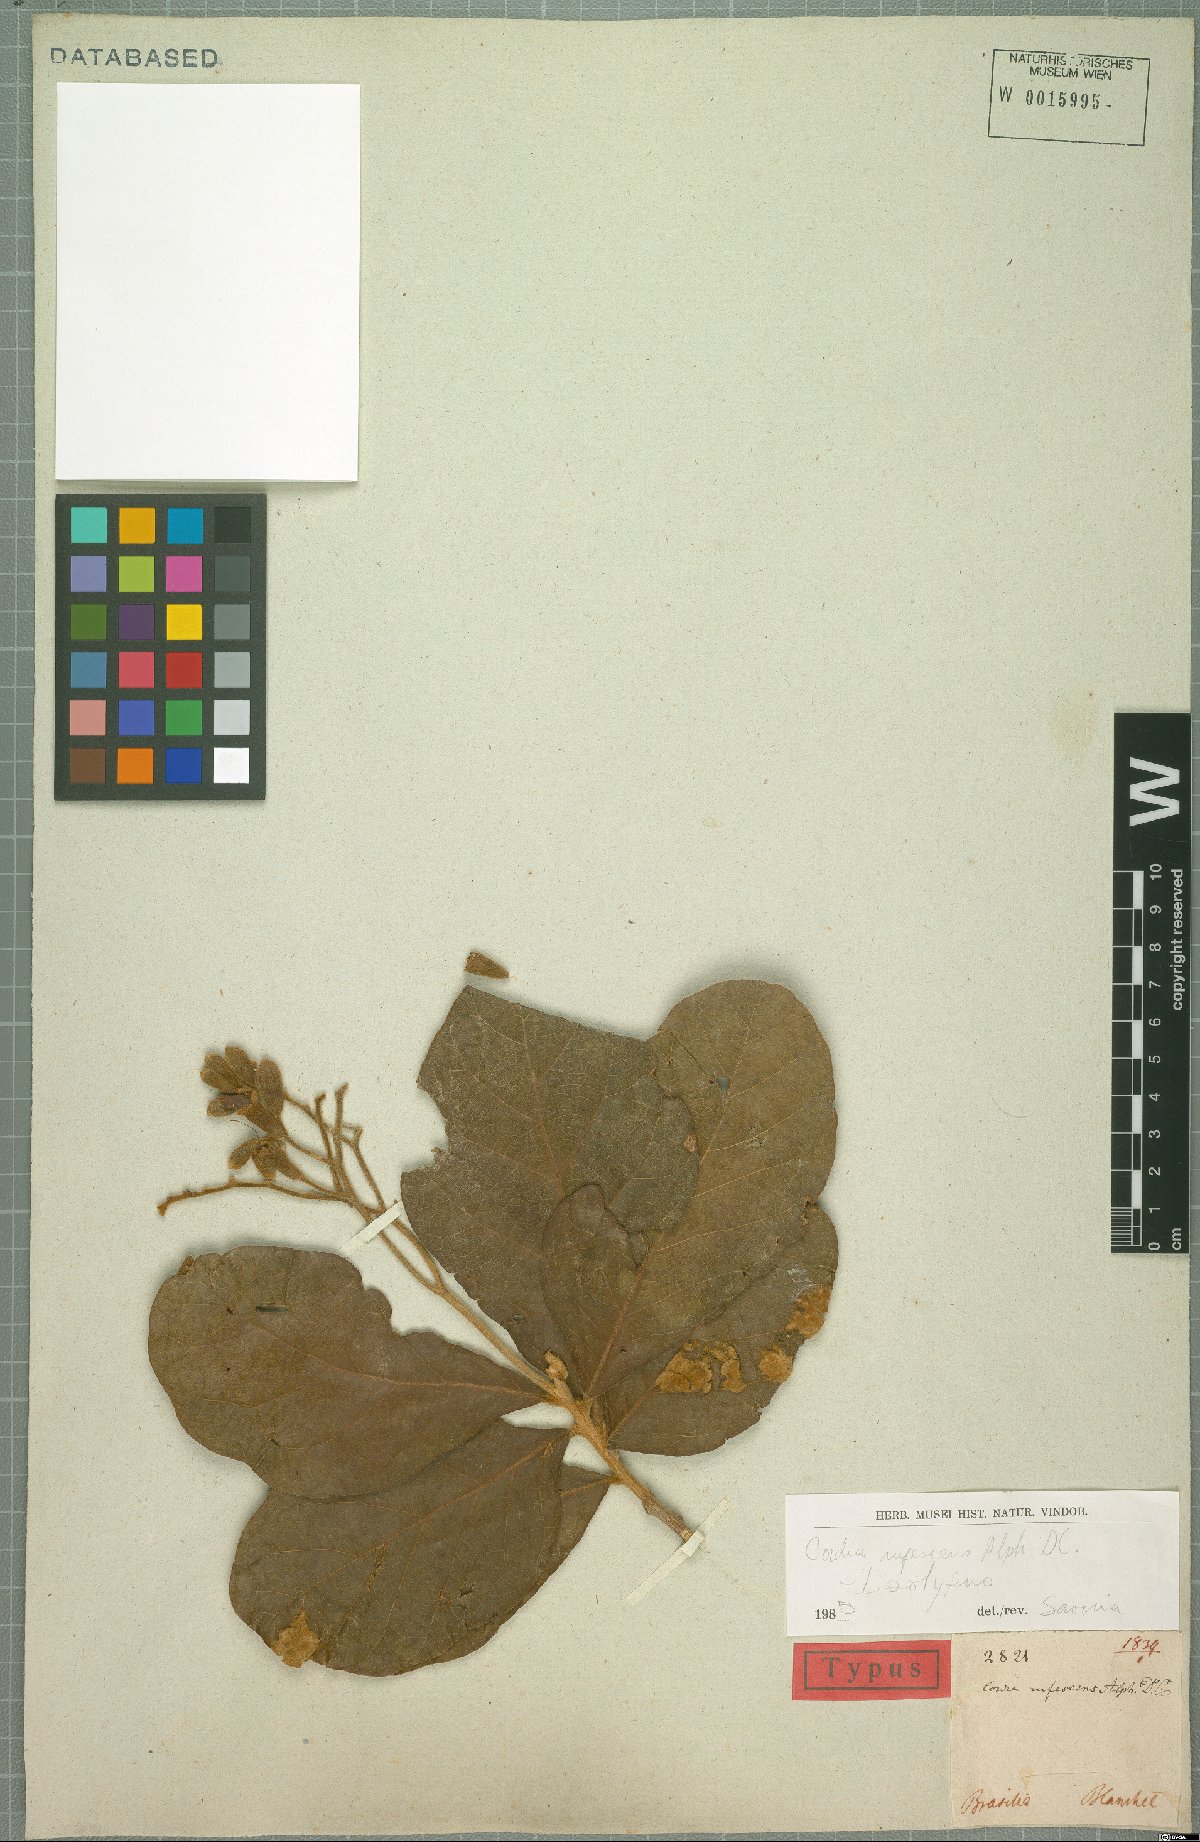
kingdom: Plantae
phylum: Tracheophyta
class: Magnoliopsida
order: Boraginales
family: Cordiaceae
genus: Cordia
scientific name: Cordia rufescens
